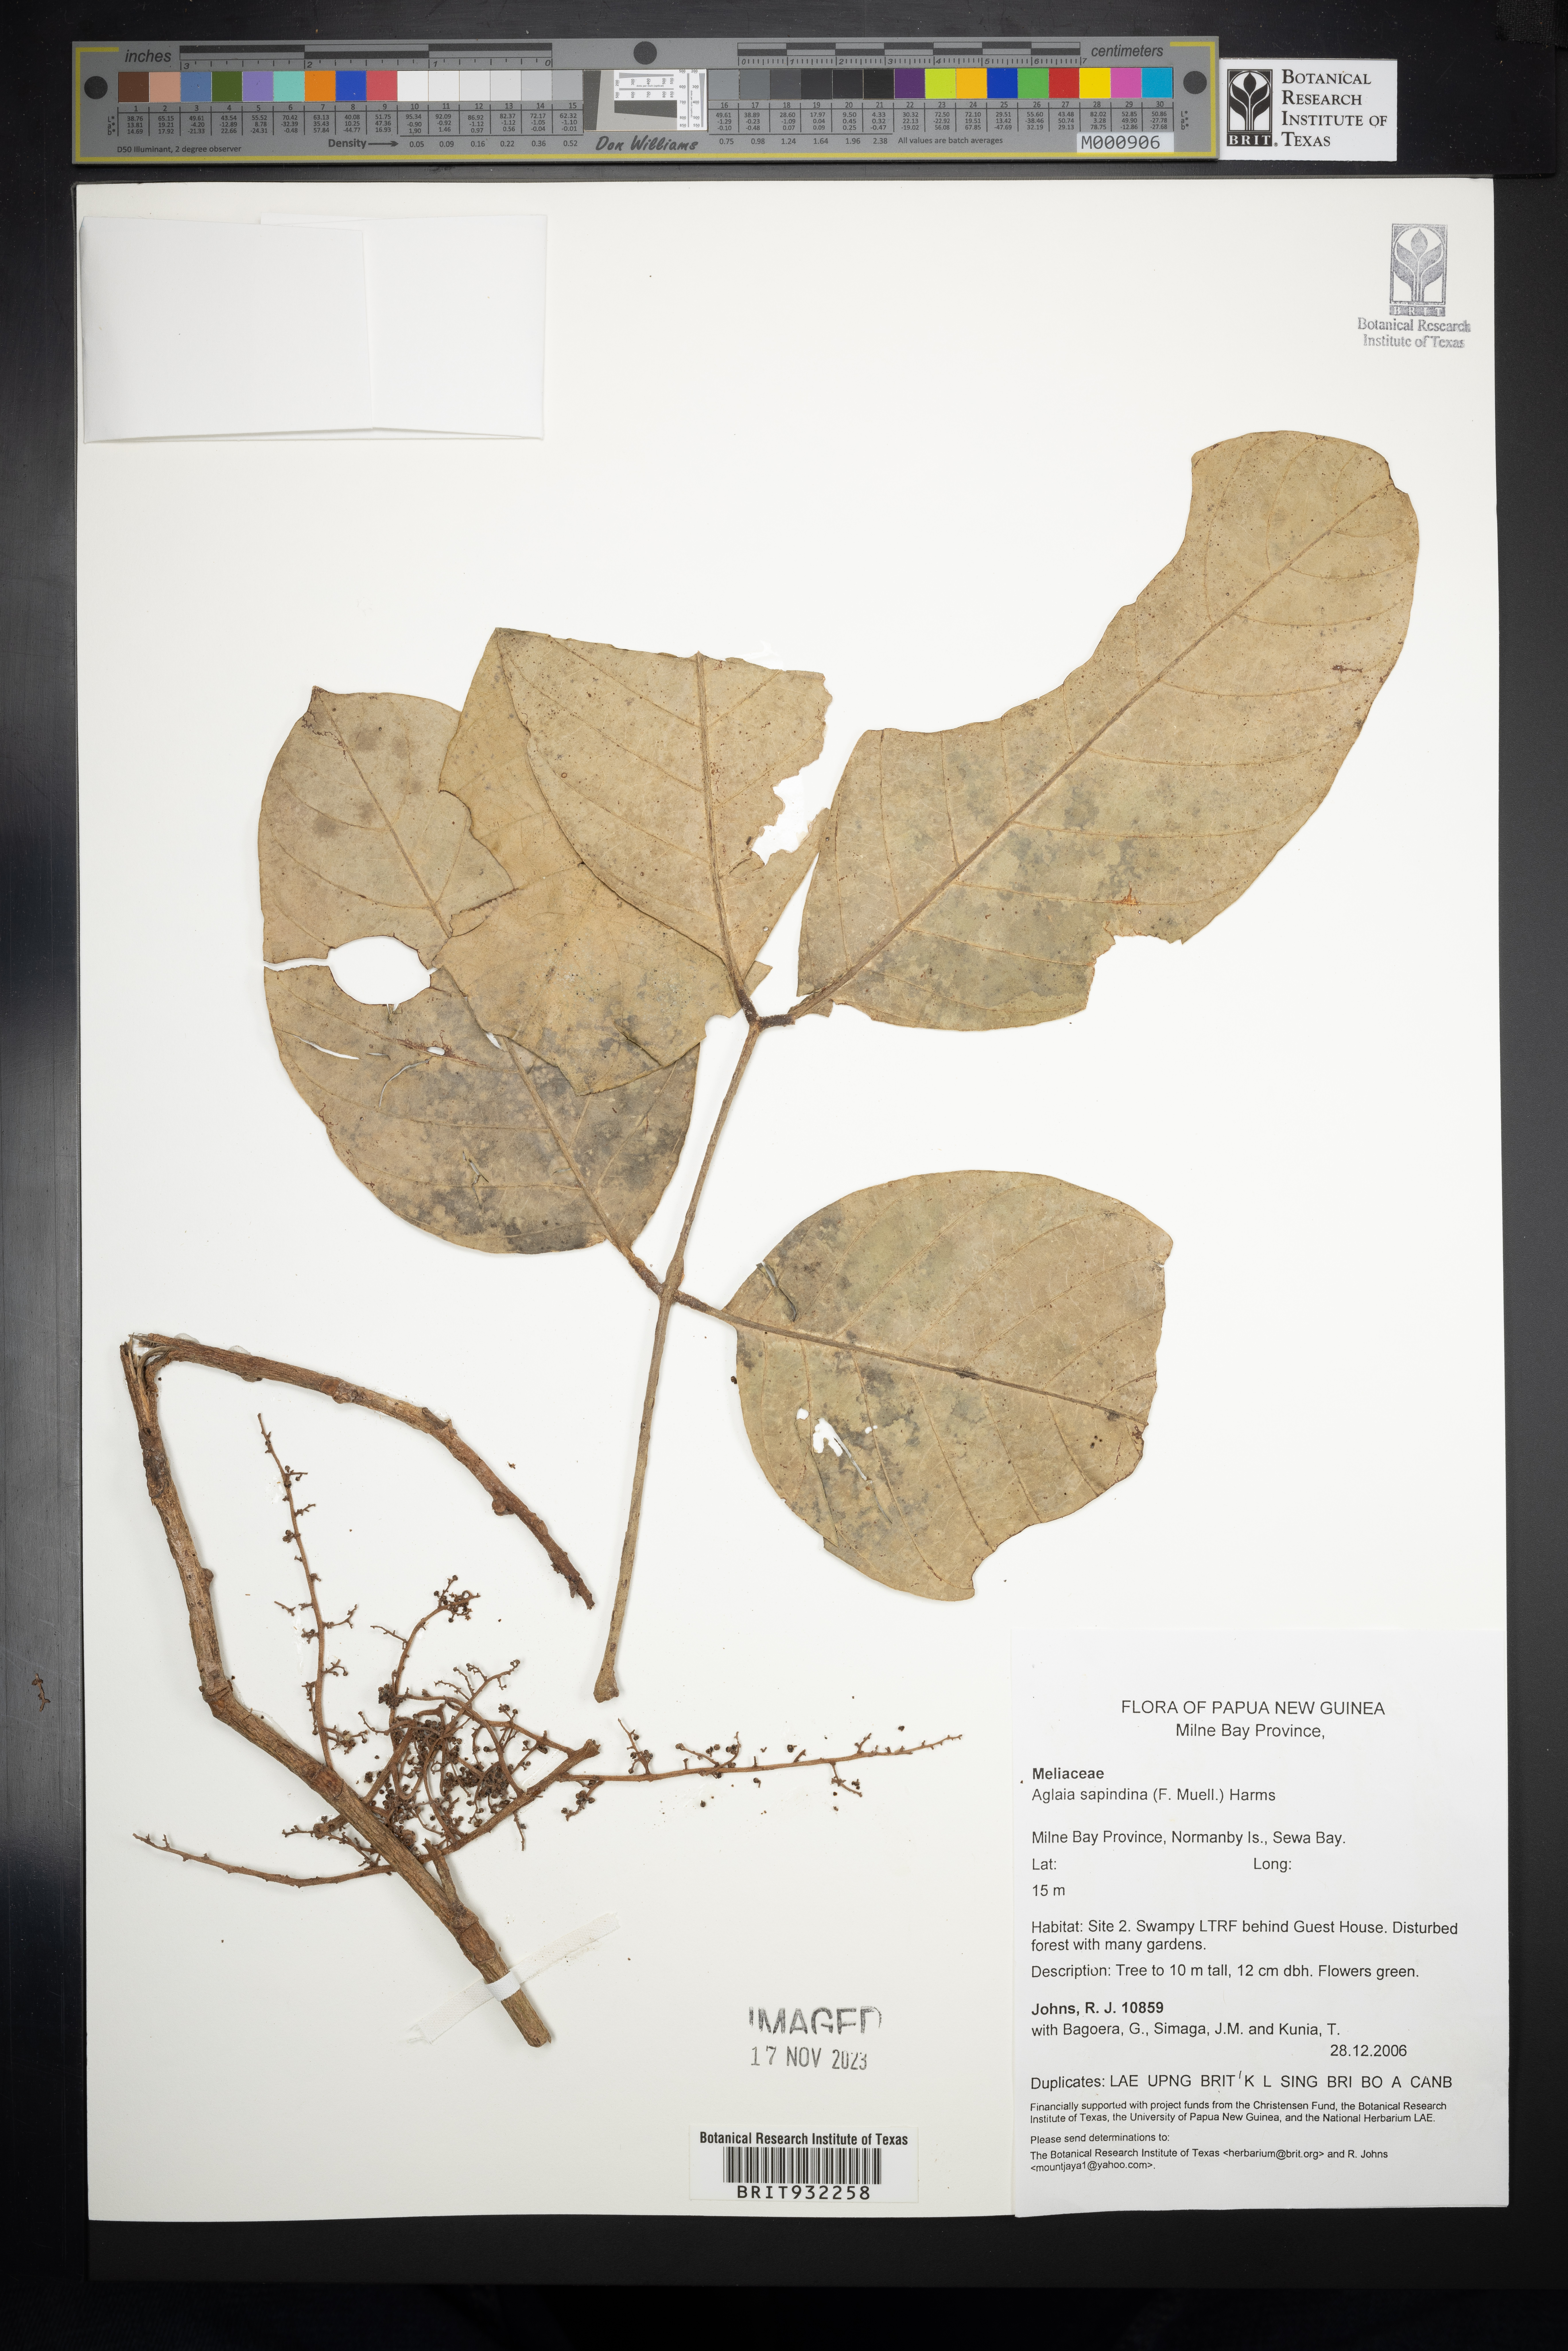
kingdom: Plantae
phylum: Tracheophyta
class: Magnoliopsida
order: Sapindales
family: Meliaceae
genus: Aglaia
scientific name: Aglaia
